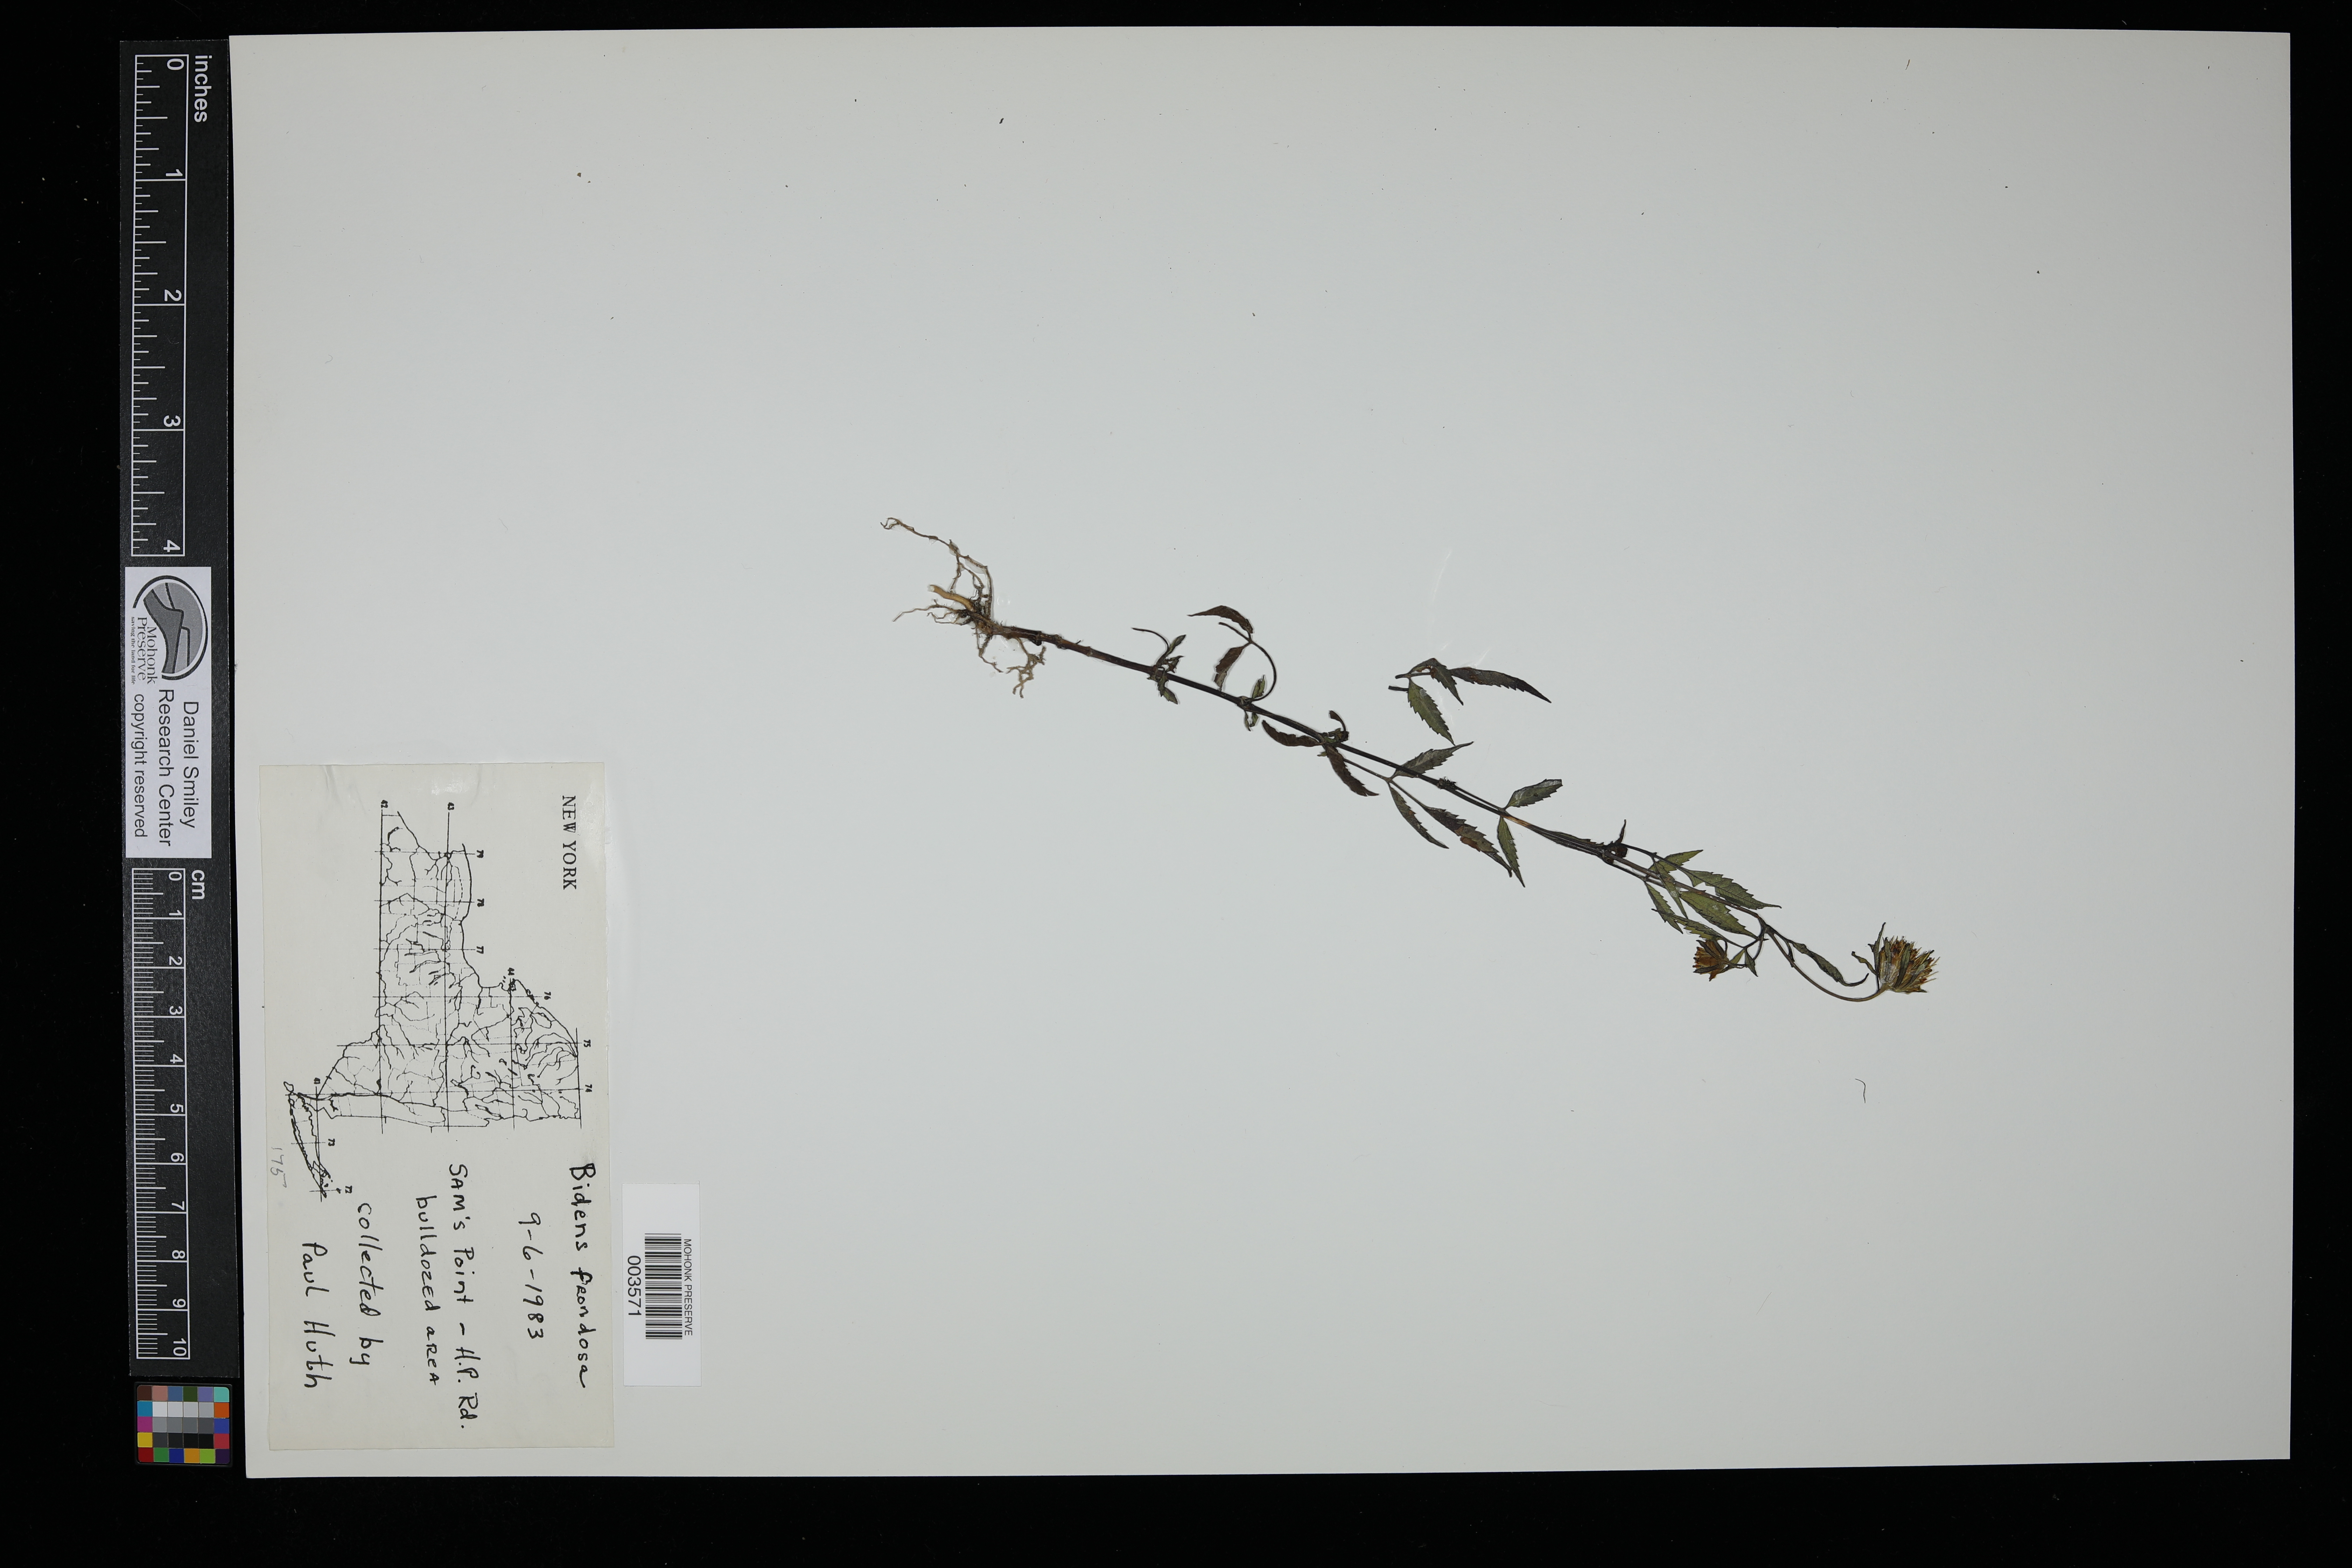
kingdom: Plantae
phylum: Tracheophyta
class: Magnoliopsida
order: Asterales
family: Asteraceae
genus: Bidens
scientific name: Bidens frondosa
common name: Beggarticks
